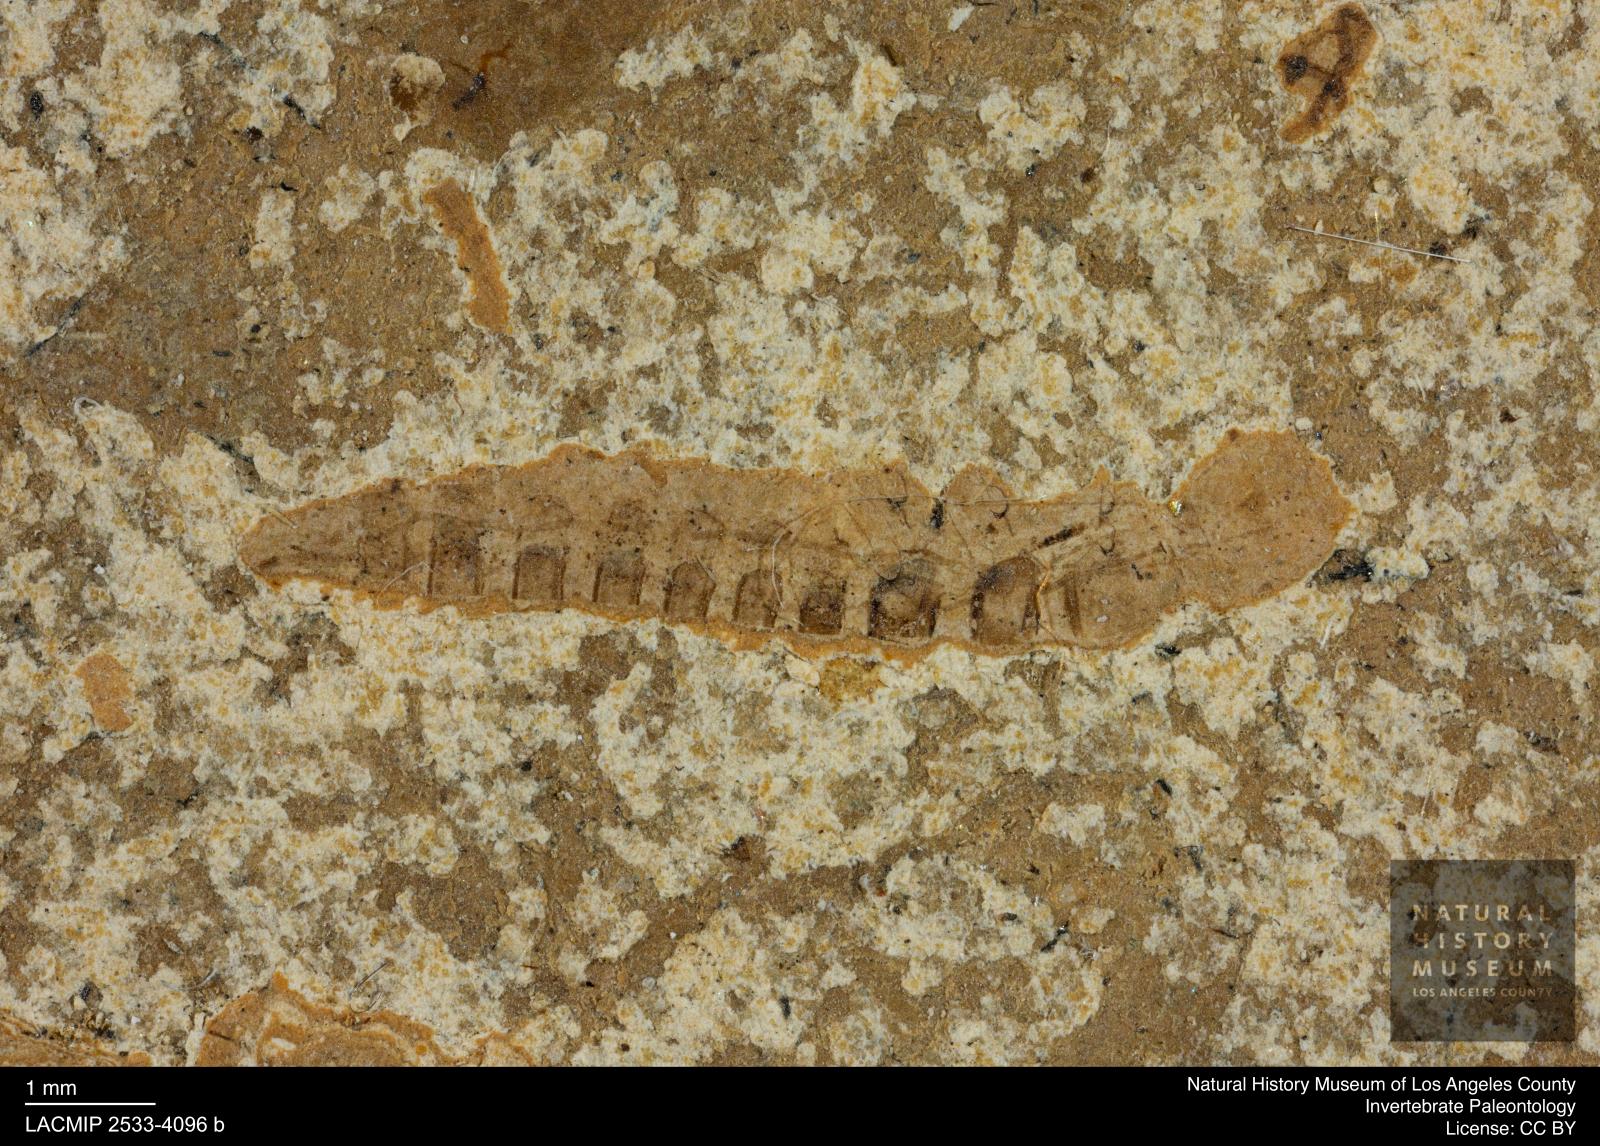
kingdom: Animalia
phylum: Arthropoda
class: Insecta
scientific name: Insecta
